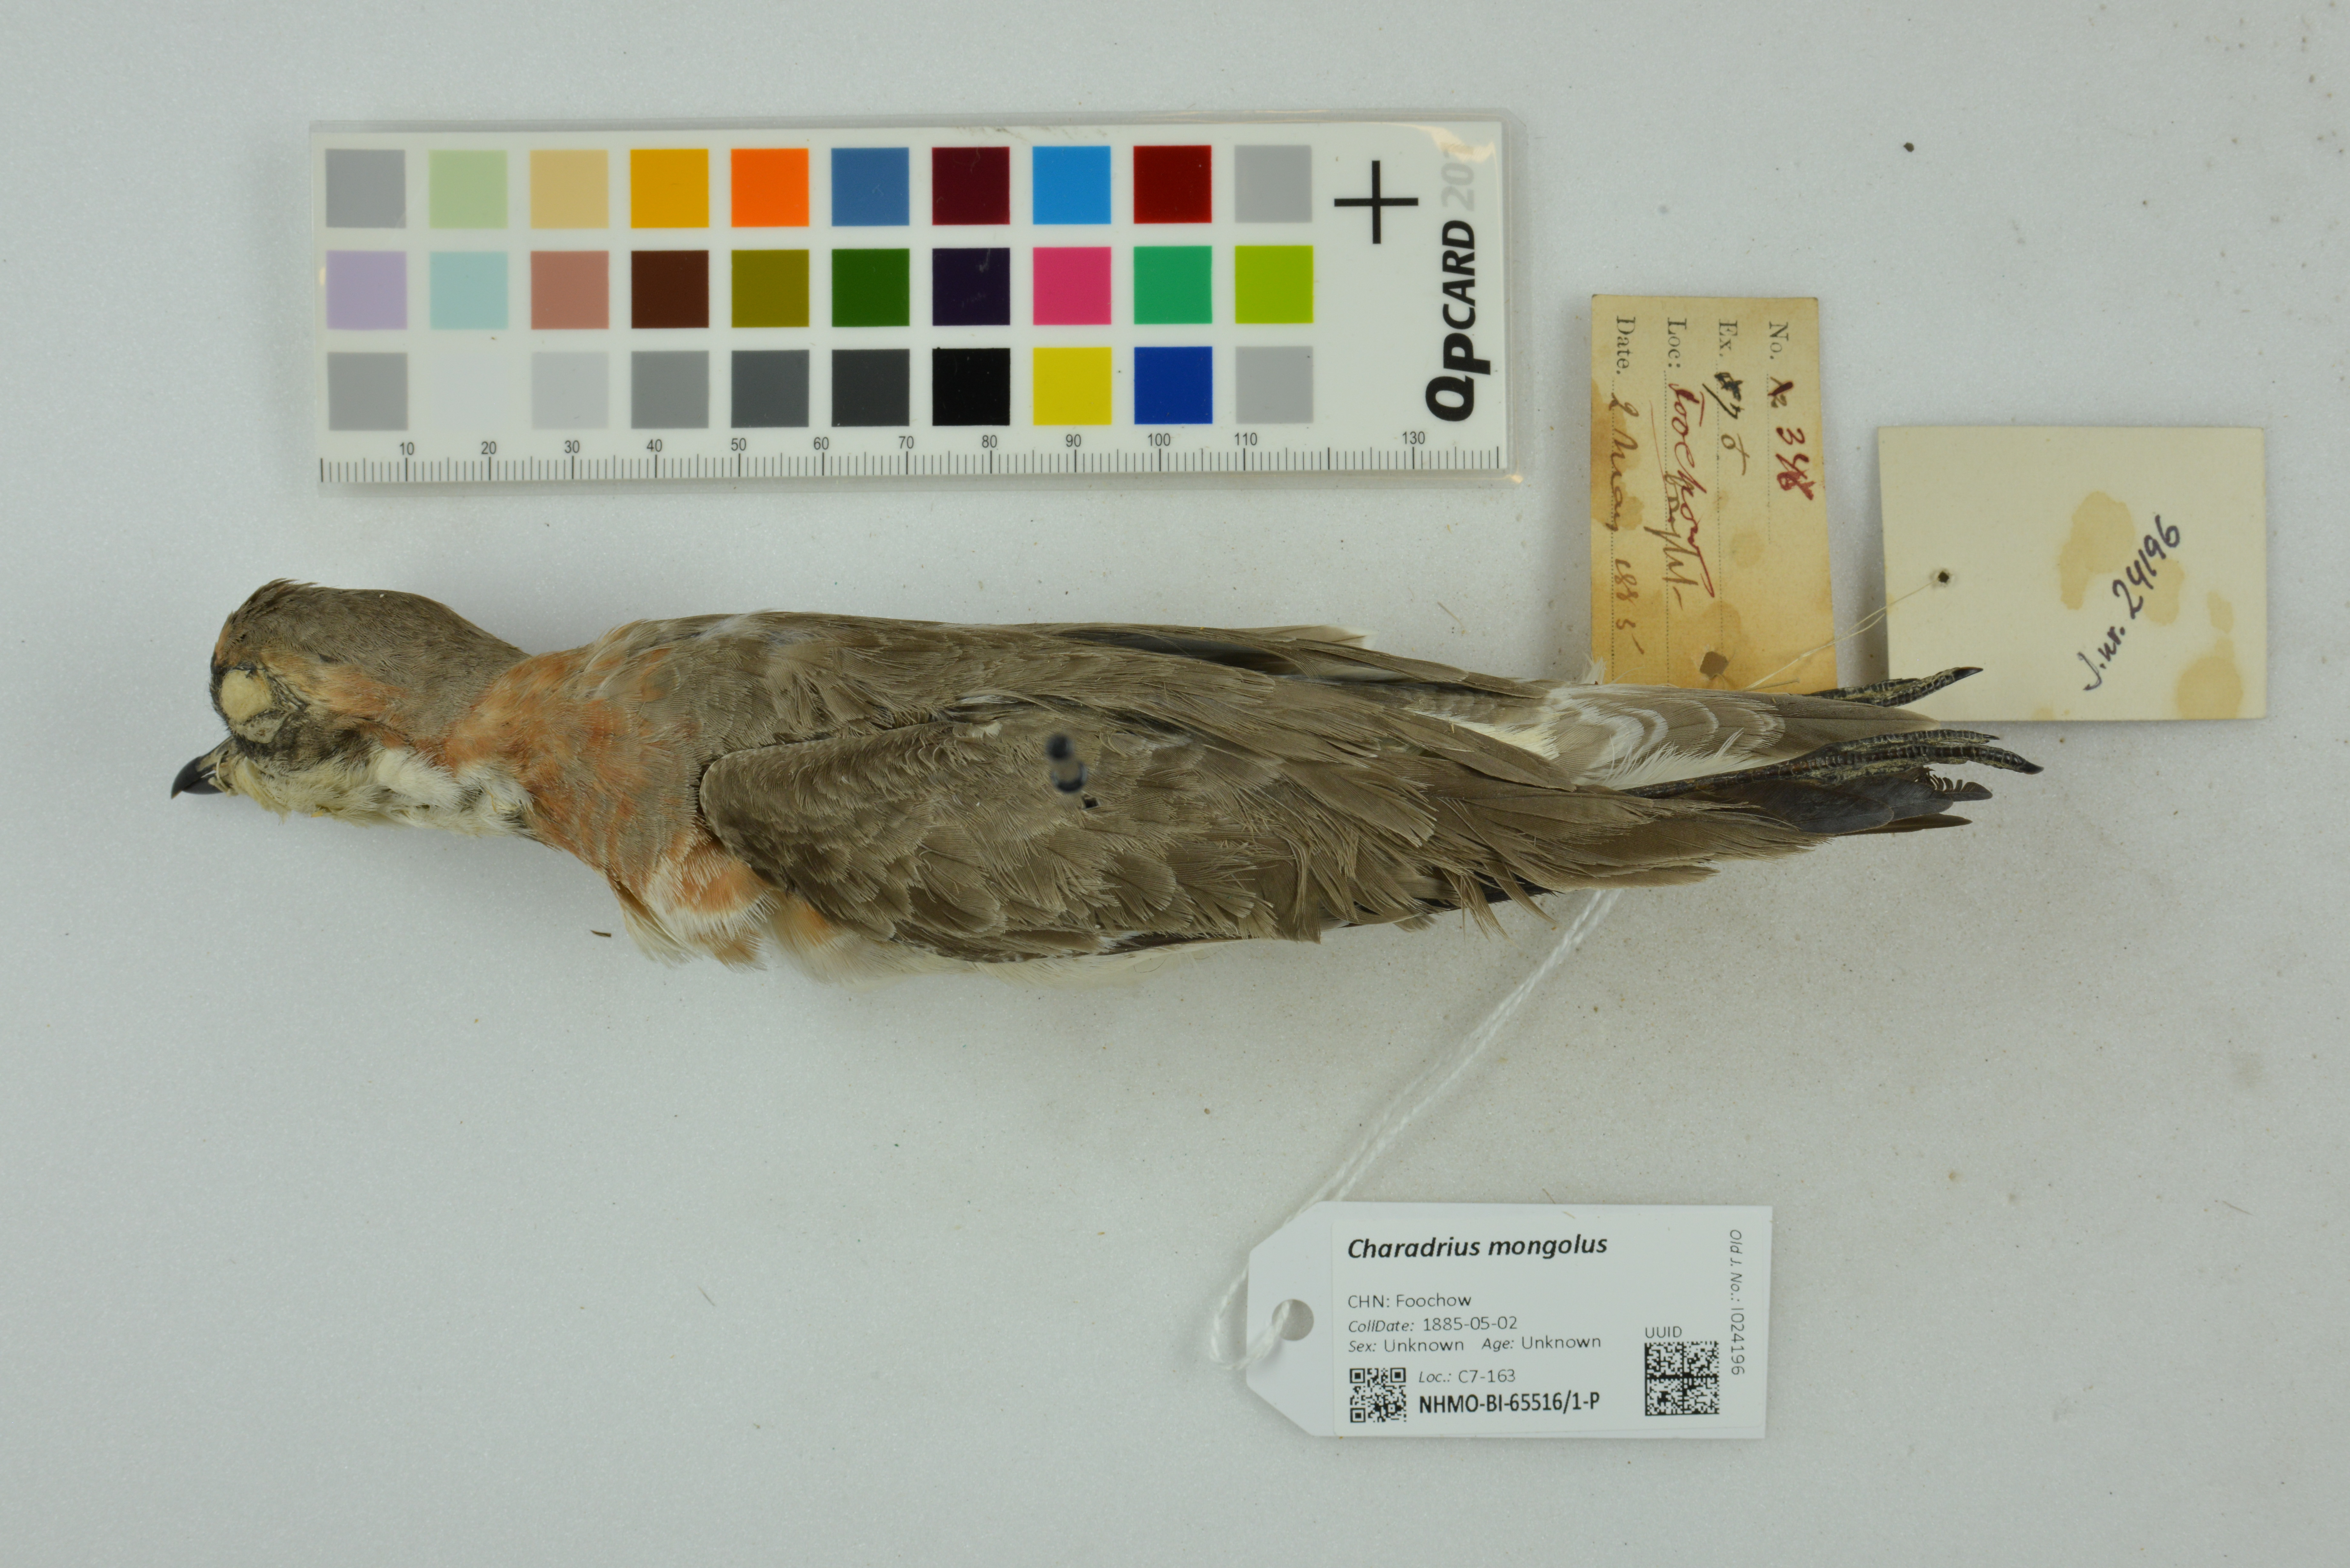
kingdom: Animalia
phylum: Chordata
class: Aves
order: Charadriiformes
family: Charadriidae
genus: Charadrius
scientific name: Charadrius mongolus
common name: Lesser sand-plover
